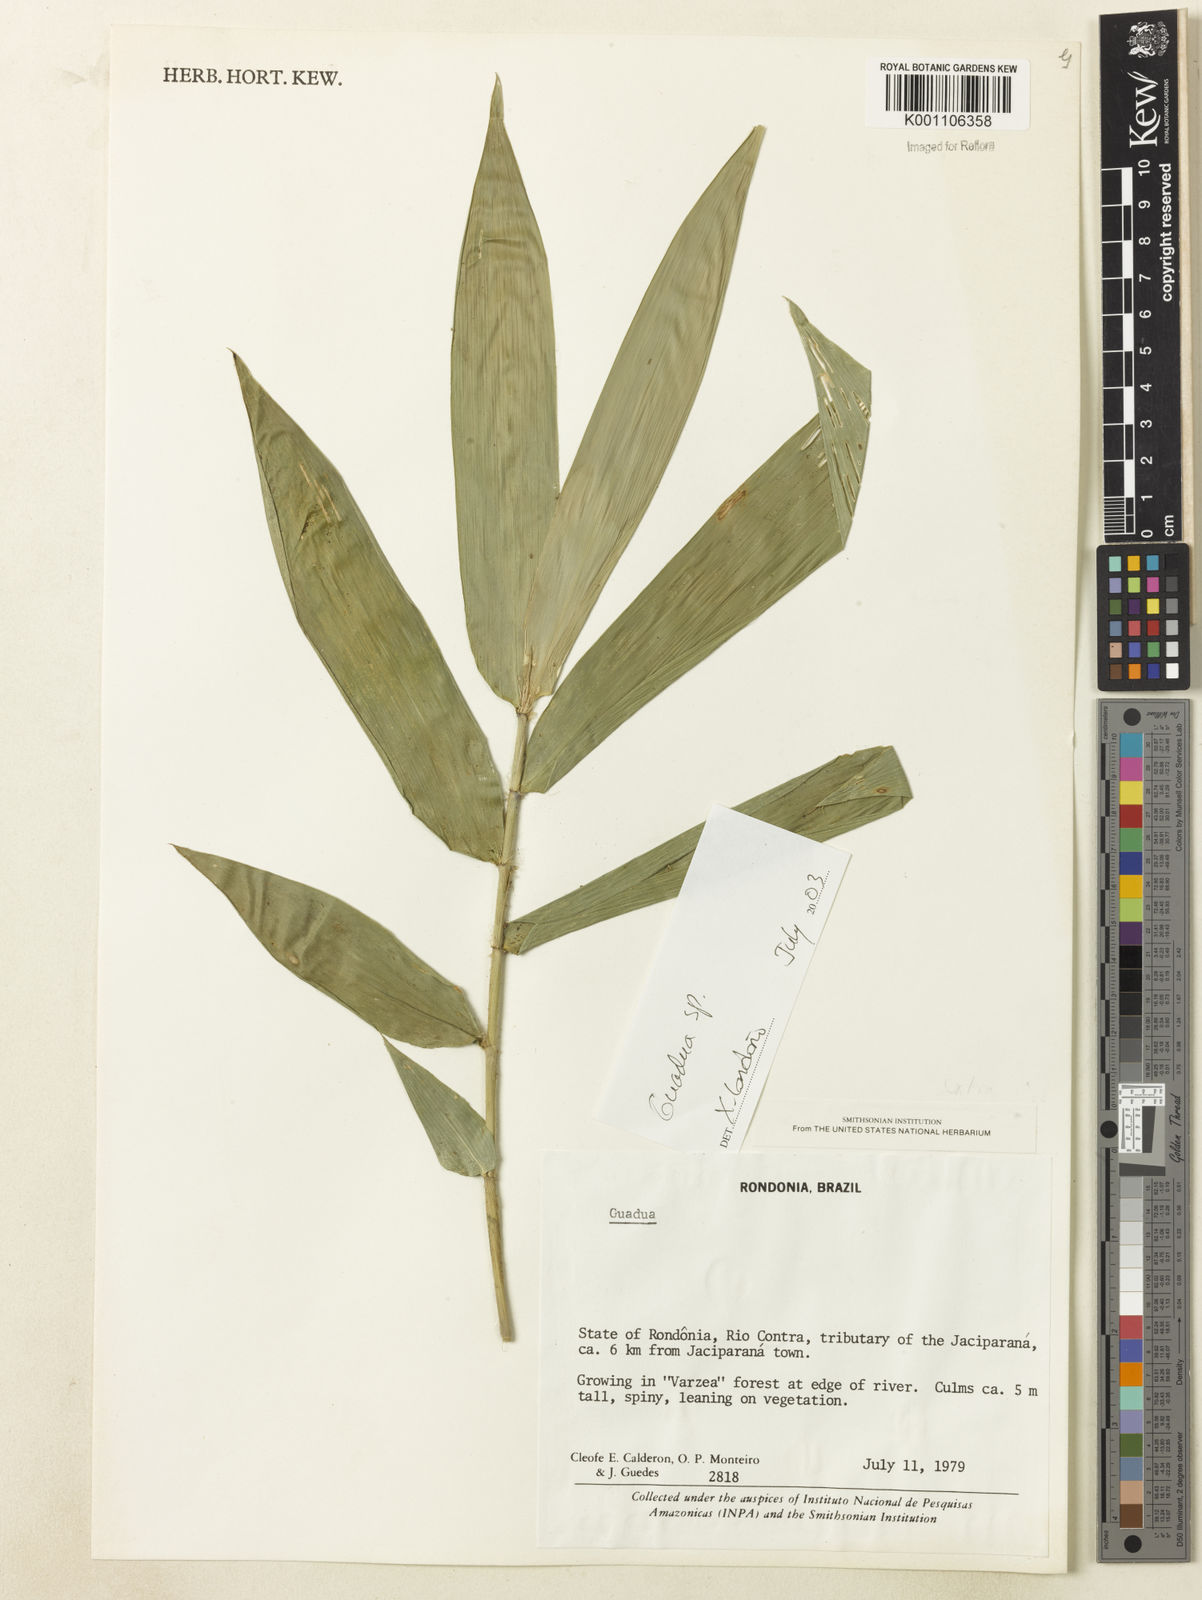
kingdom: Plantae
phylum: Tracheophyta
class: Liliopsida
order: Poales
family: Poaceae
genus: Guadua
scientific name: Guadua
